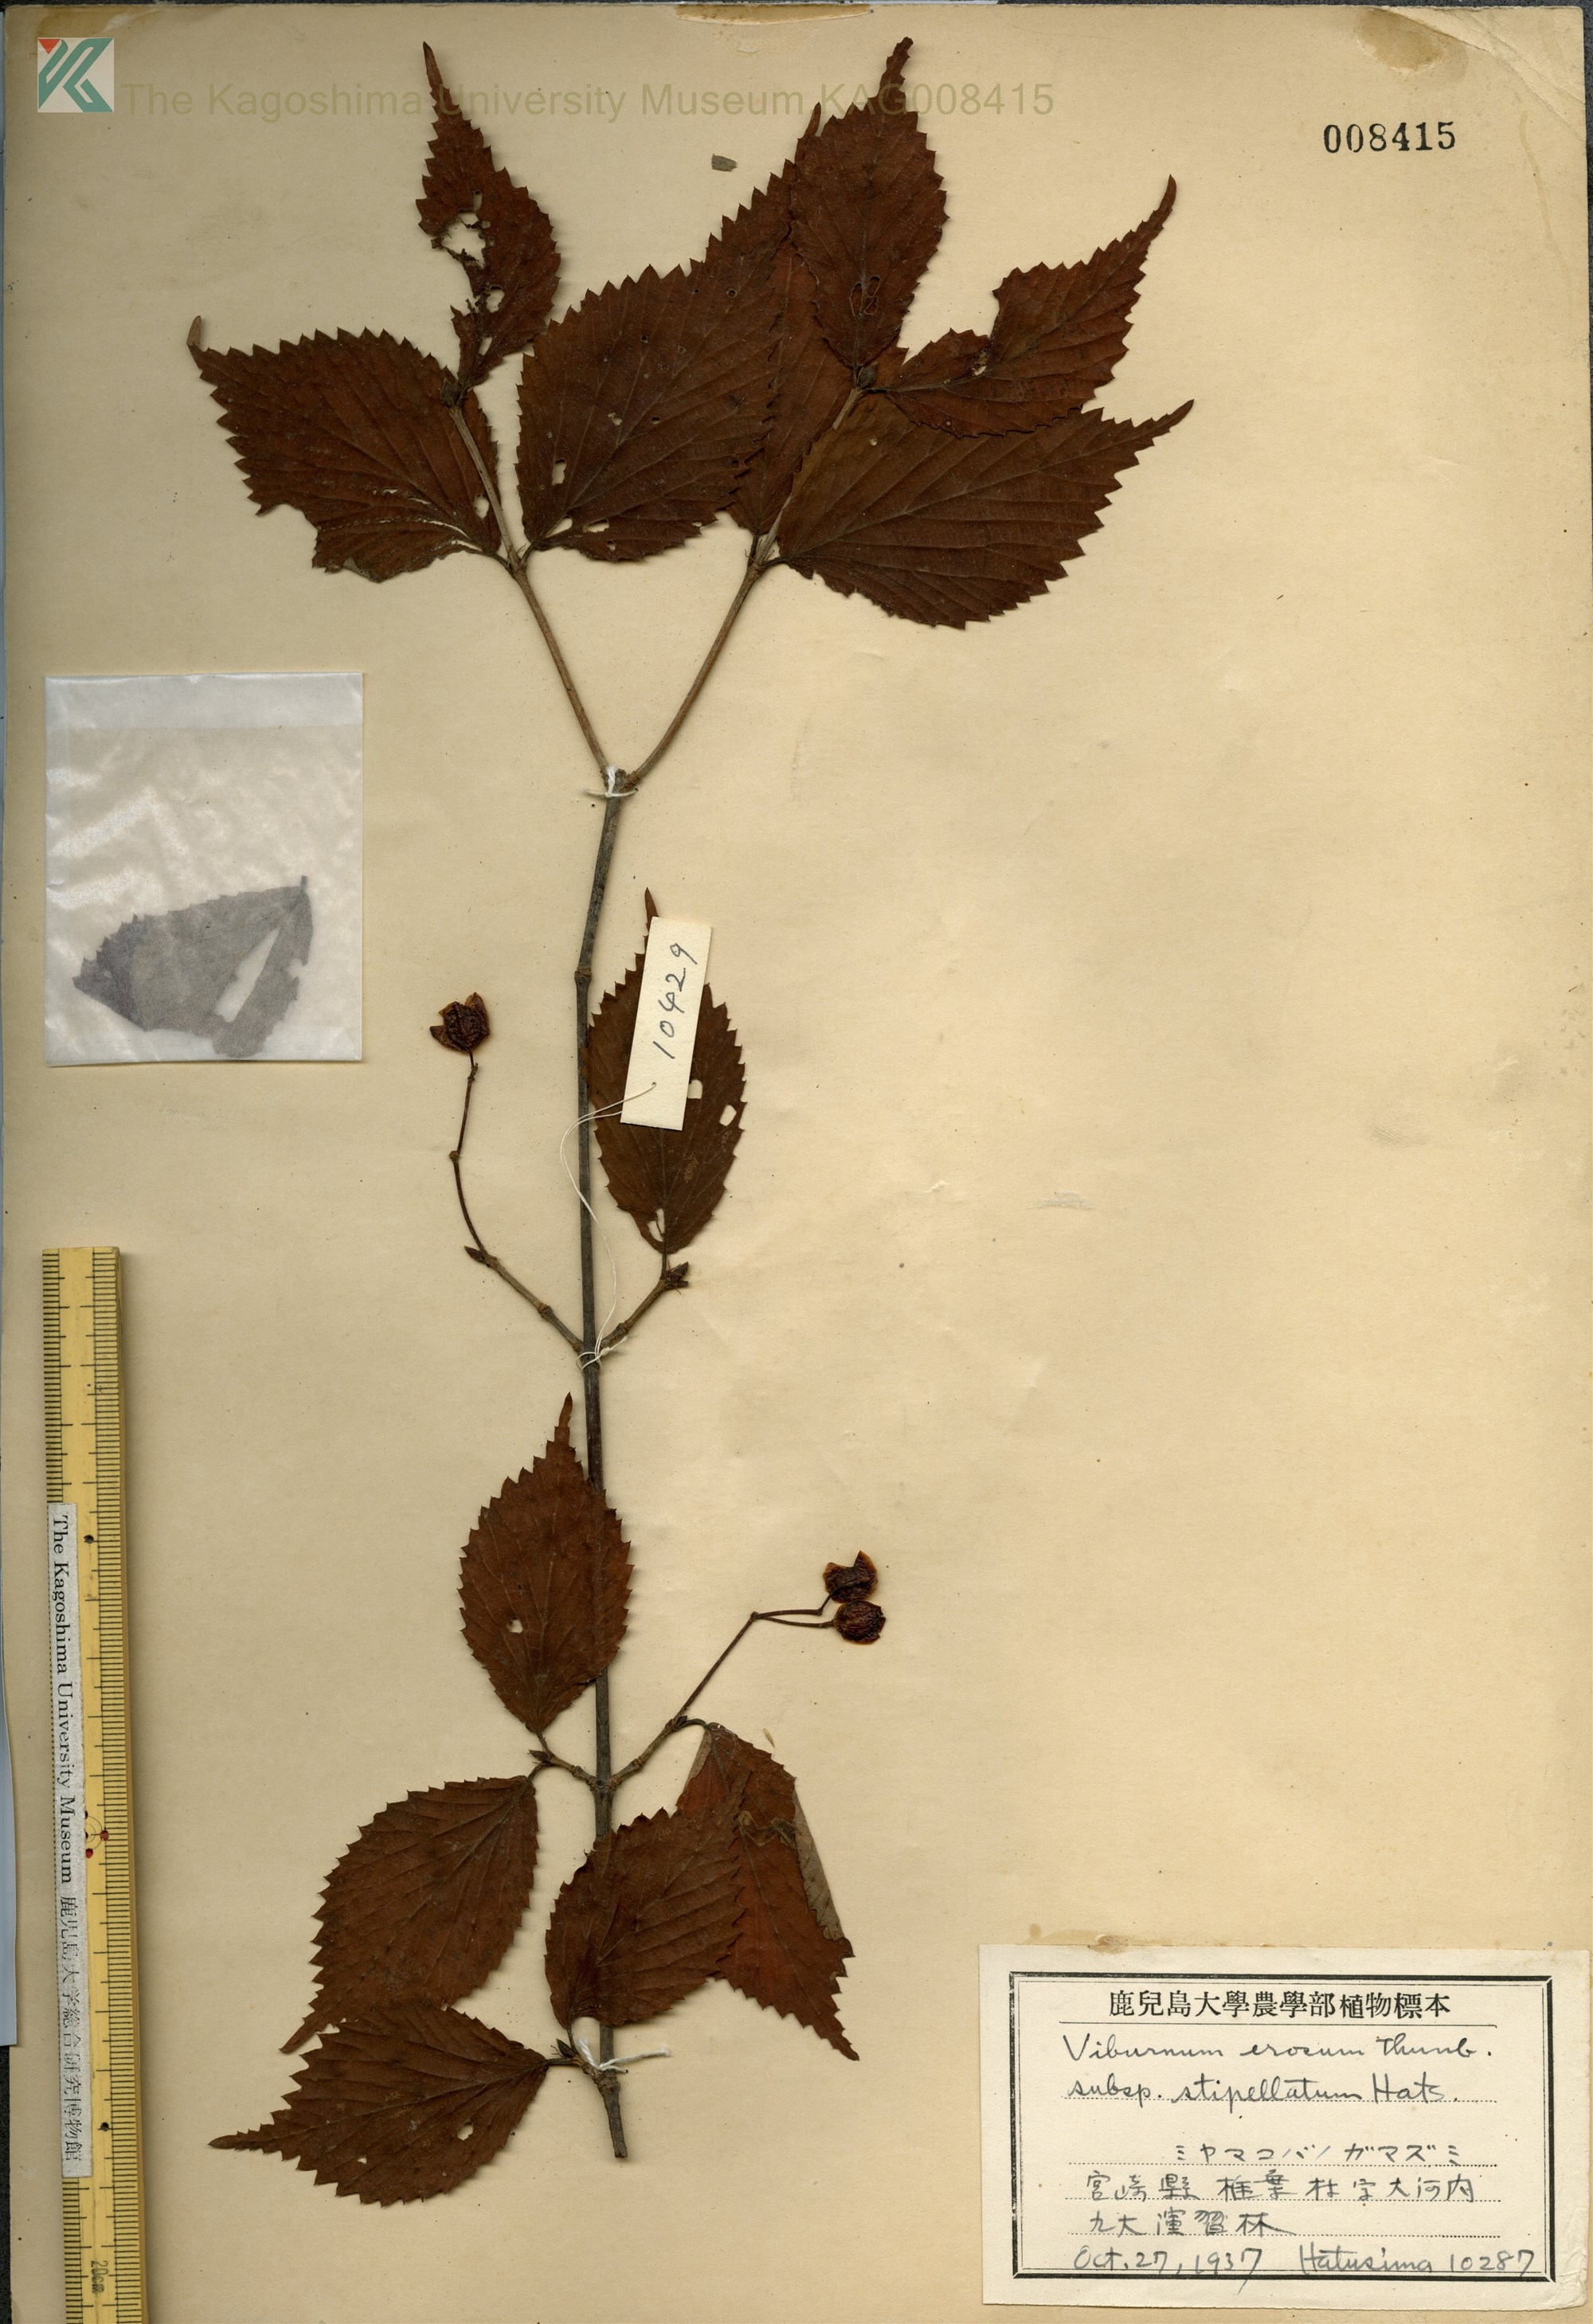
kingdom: Plantae
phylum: Tracheophyta
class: Magnoliopsida
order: Dipsacales
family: Viburnaceae
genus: Viburnum
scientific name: Viburnum erosum
